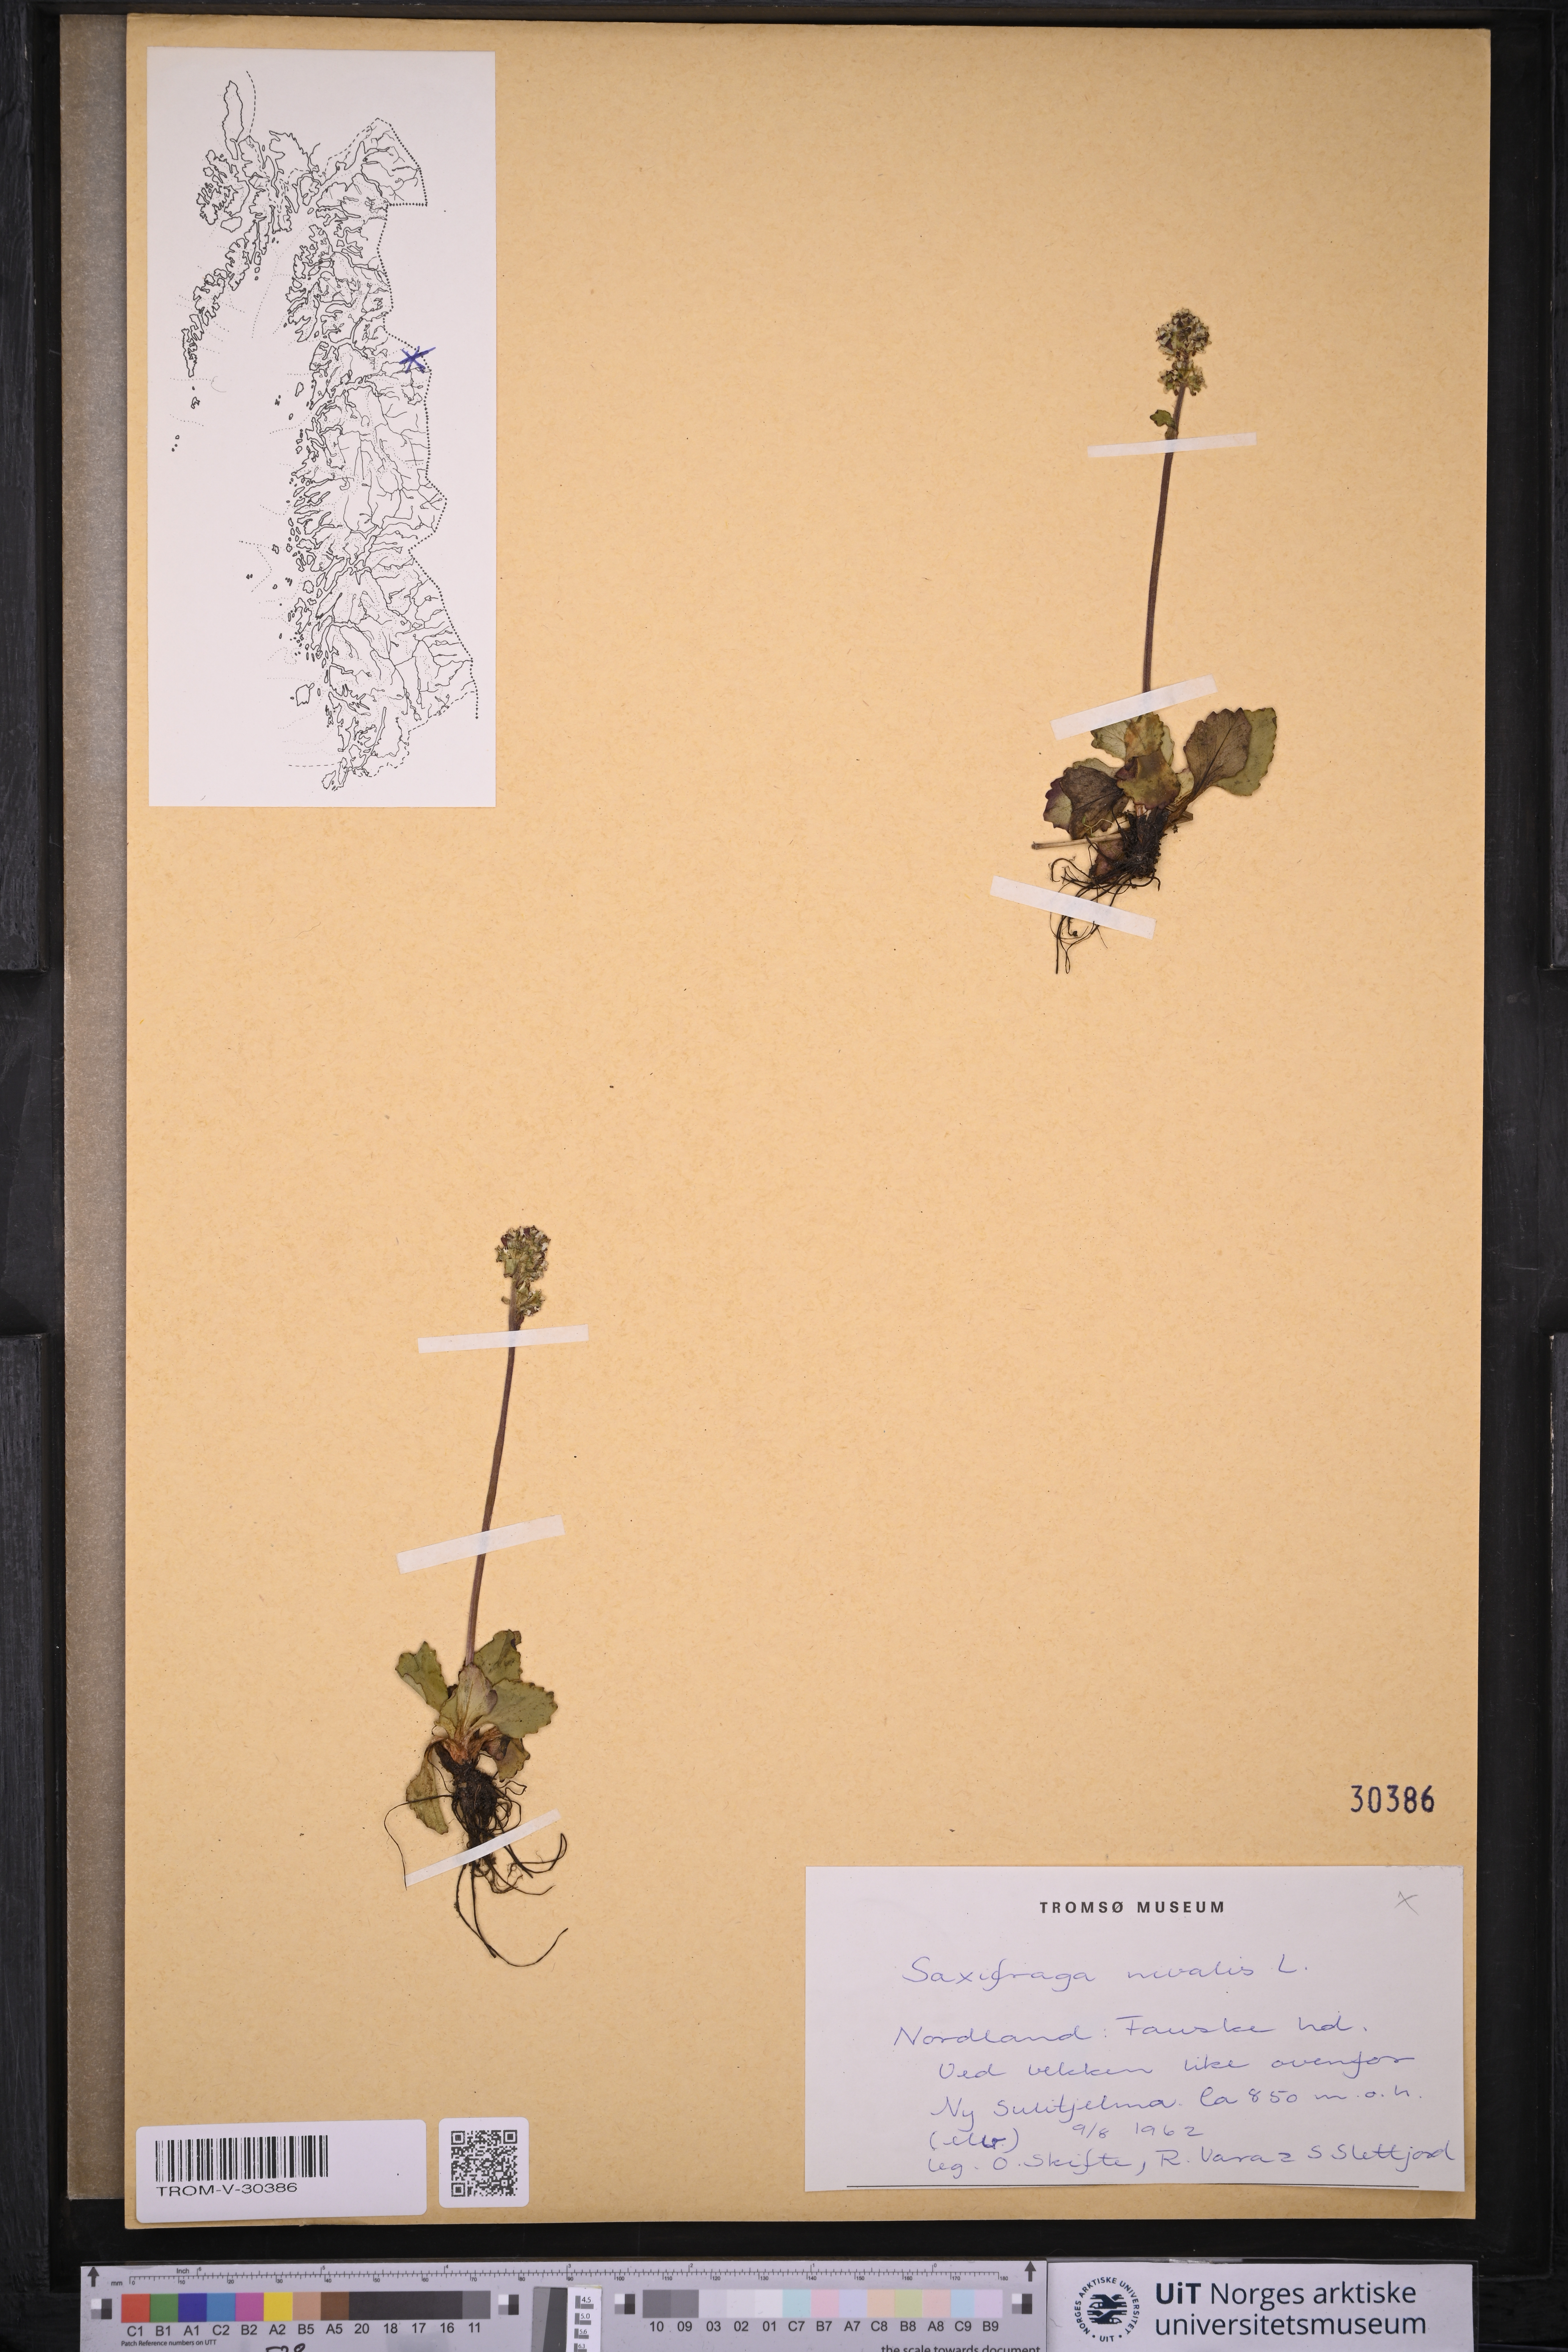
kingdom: Plantae
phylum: Tracheophyta
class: Magnoliopsida
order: Saxifragales
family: Saxifragaceae
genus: Micranthes
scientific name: Micranthes nivalis
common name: Alpine saxifrage
